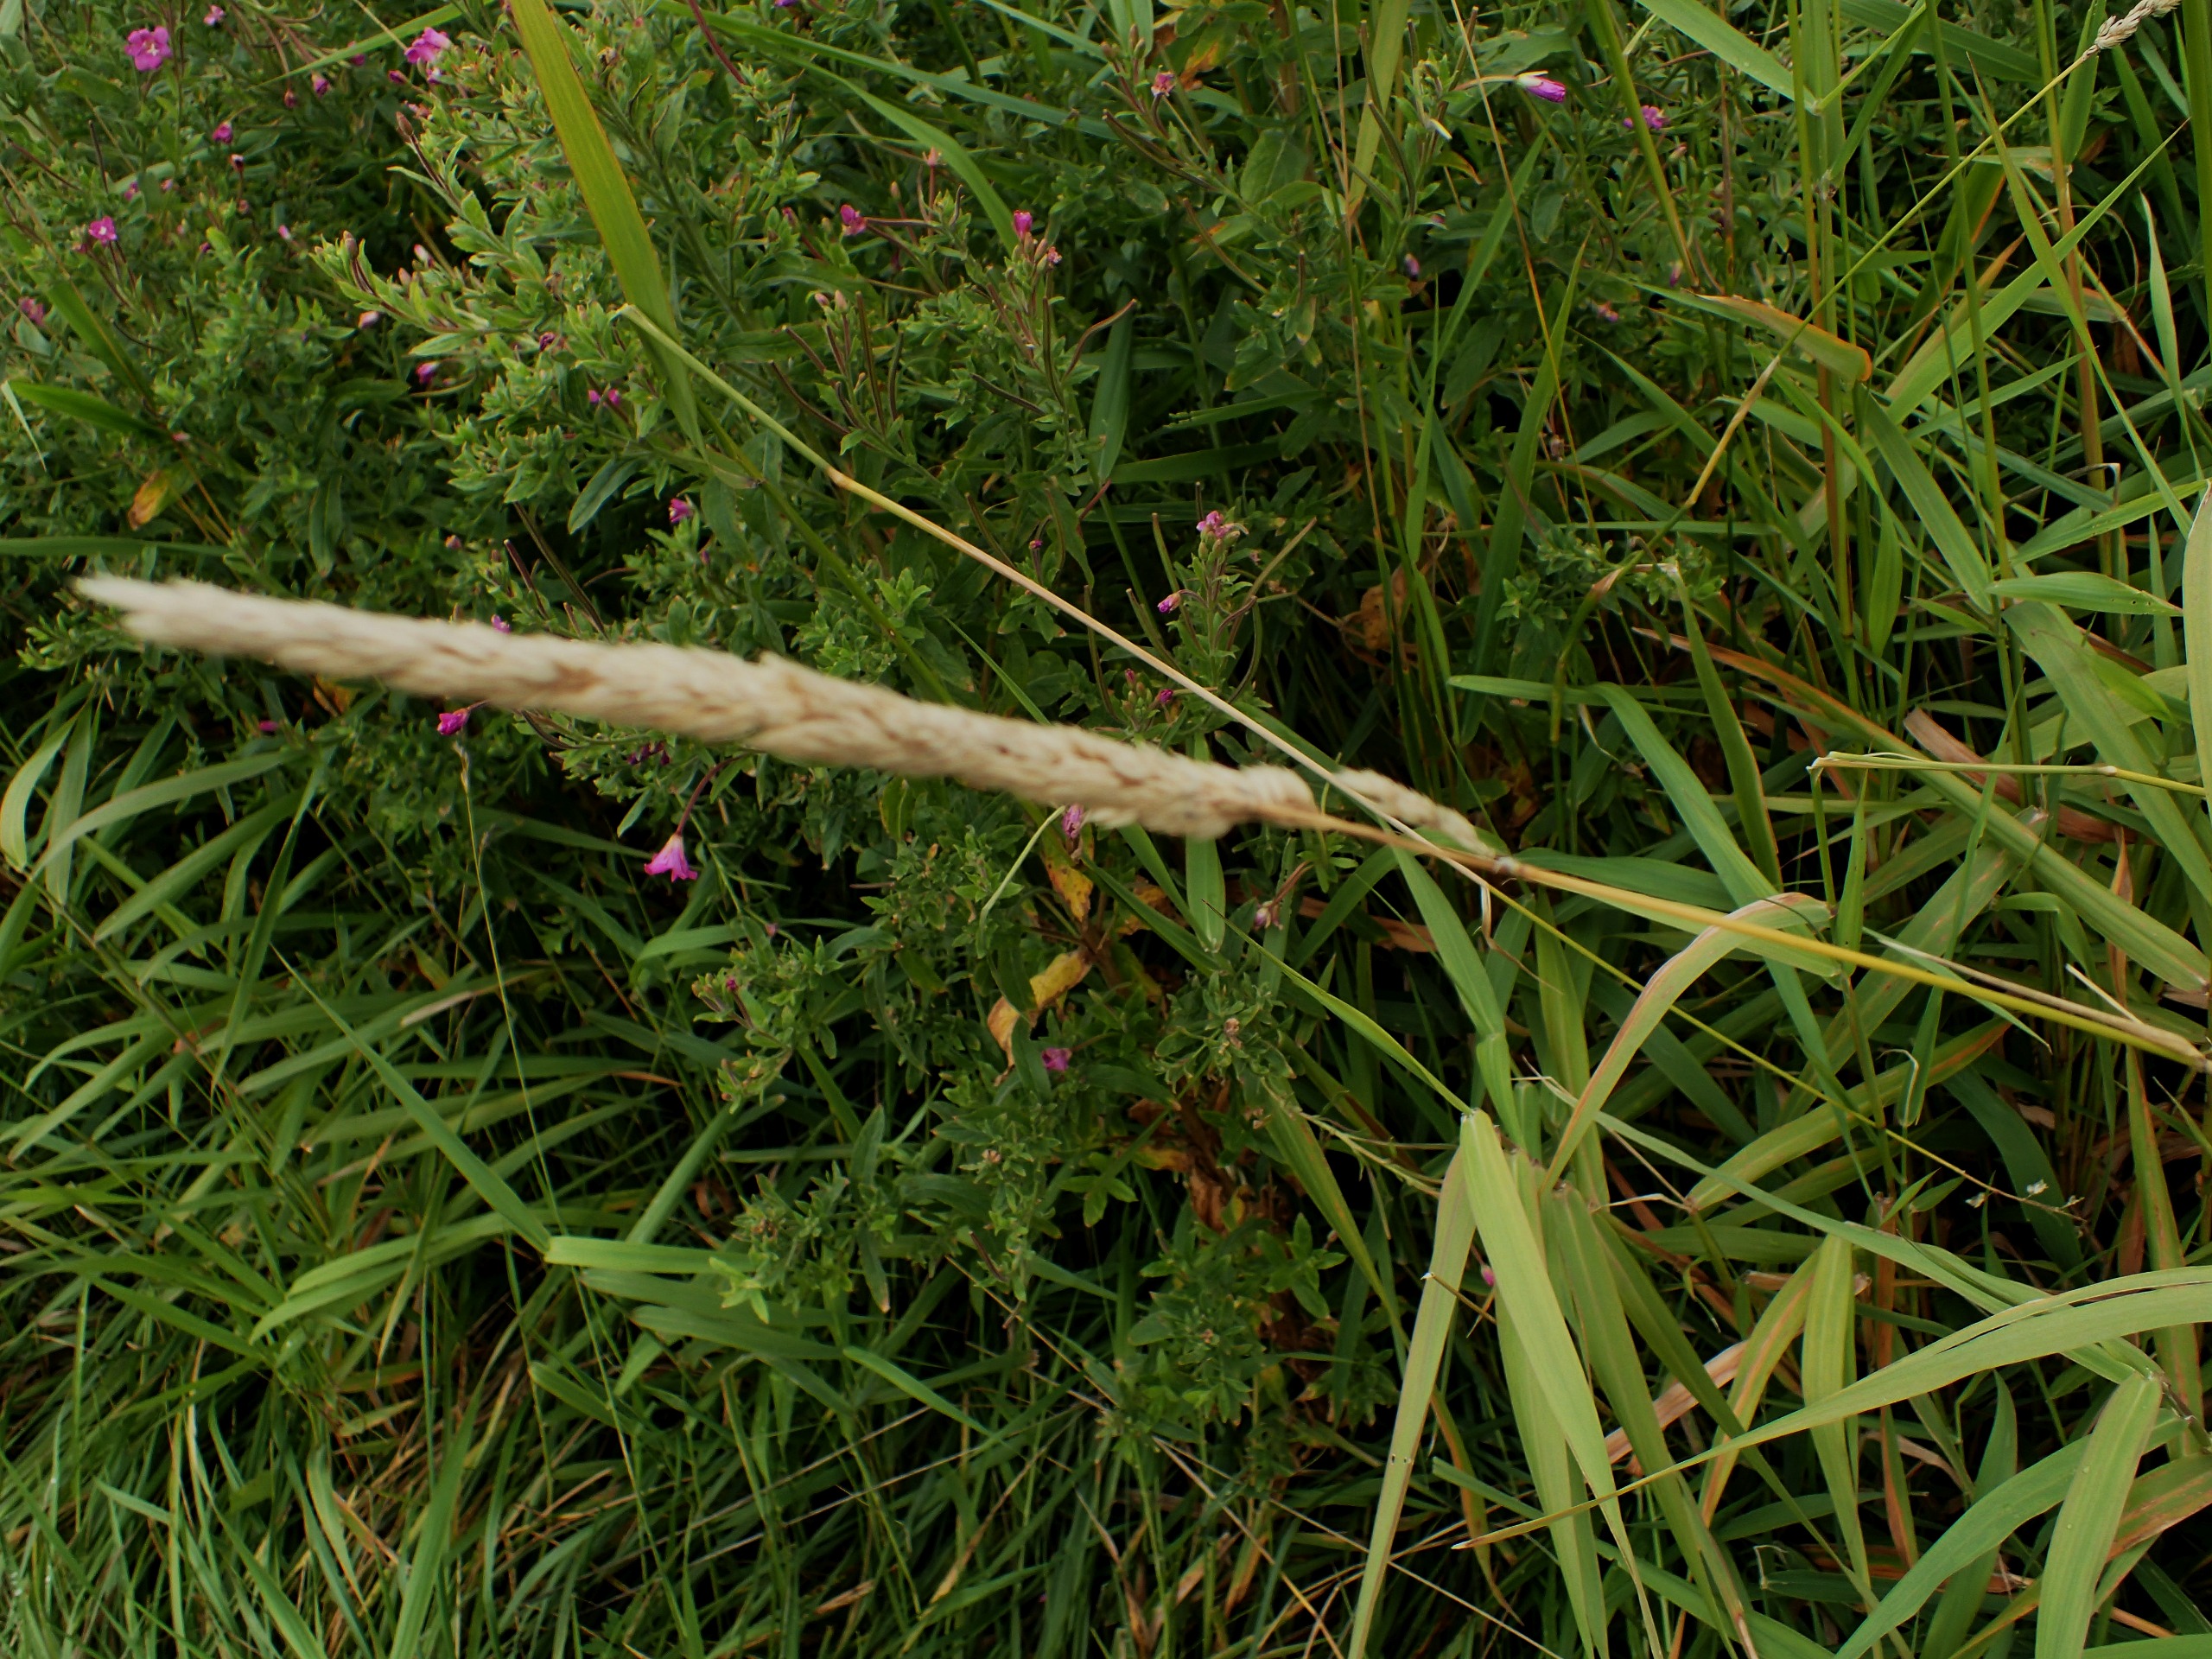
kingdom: Plantae
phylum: Tracheophyta
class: Liliopsida
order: Poales
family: Poaceae
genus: Phalaris
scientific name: Phalaris arundinacea
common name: Rørgræs
